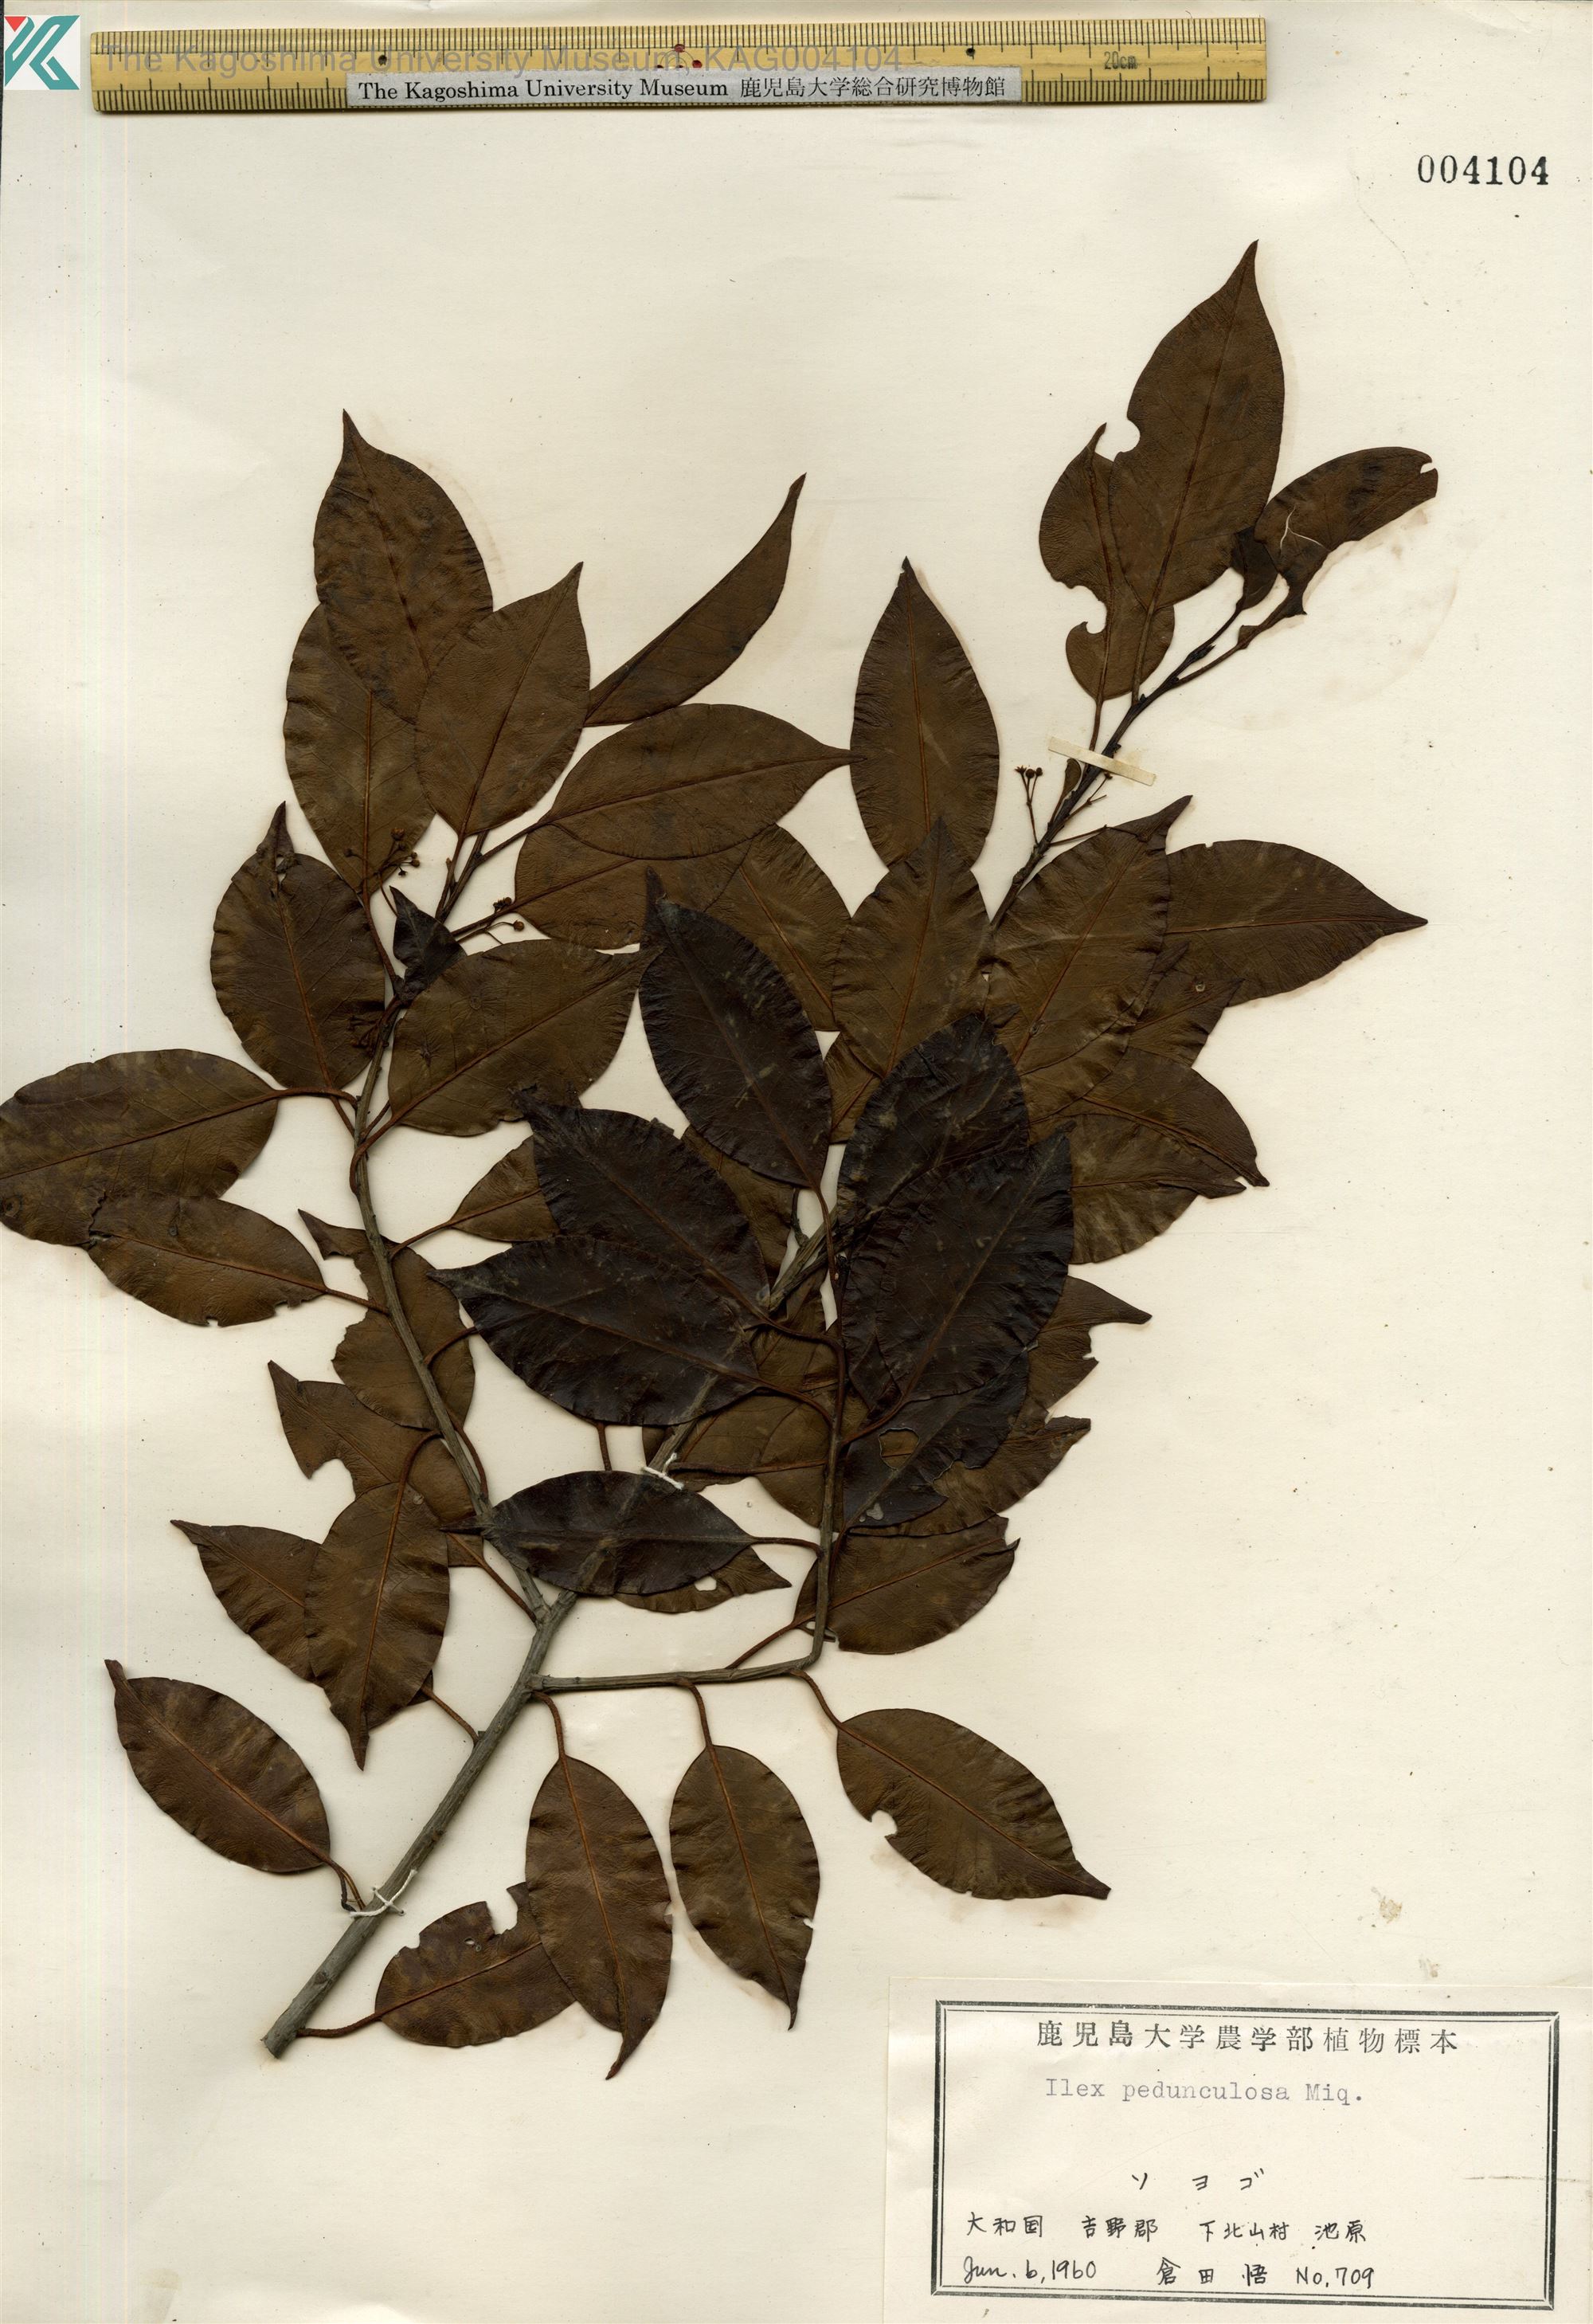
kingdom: Plantae
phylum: Tracheophyta
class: Magnoliopsida
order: Aquifoliales
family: Aquifoliaceae
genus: Ilex
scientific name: Ilex pedunculosa
